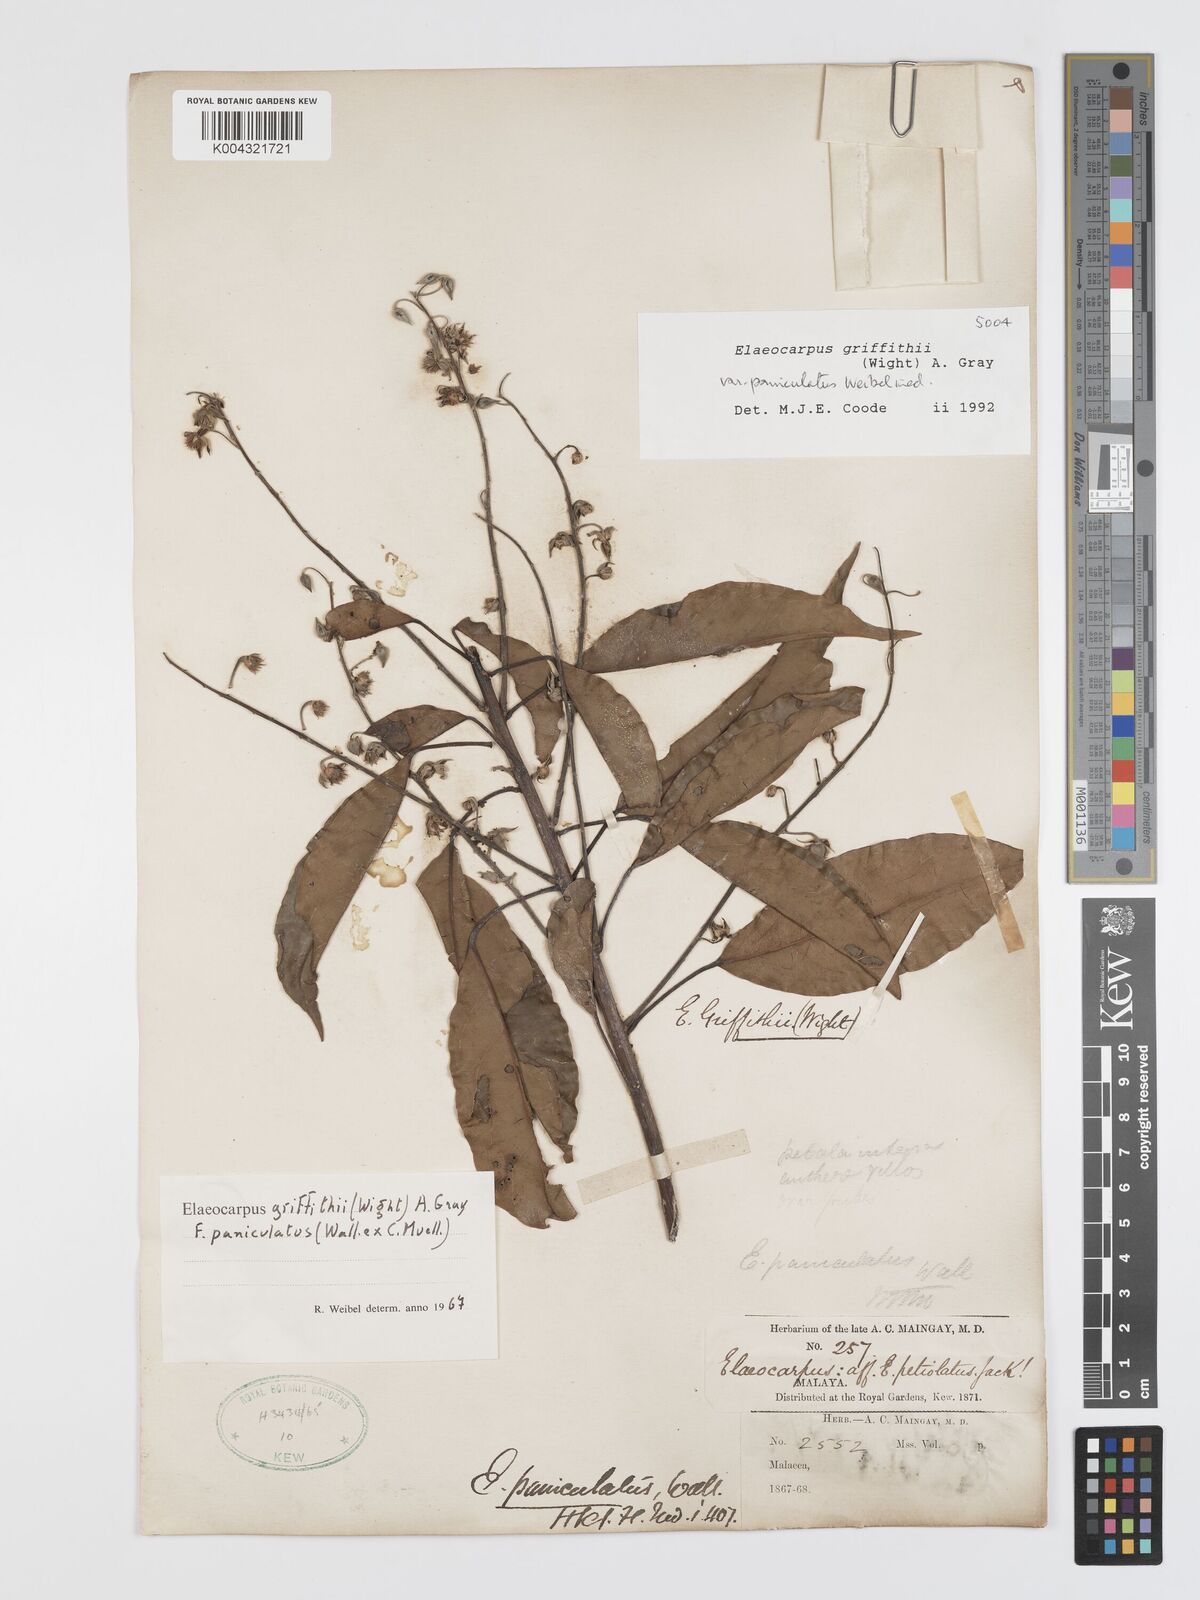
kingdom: Plantae
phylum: Tracheophyta
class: Magnoliopsida
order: Oxalidales
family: Elaeocarpaceae
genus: Elaeocarpus
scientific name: Elaeocarpus griffithii
